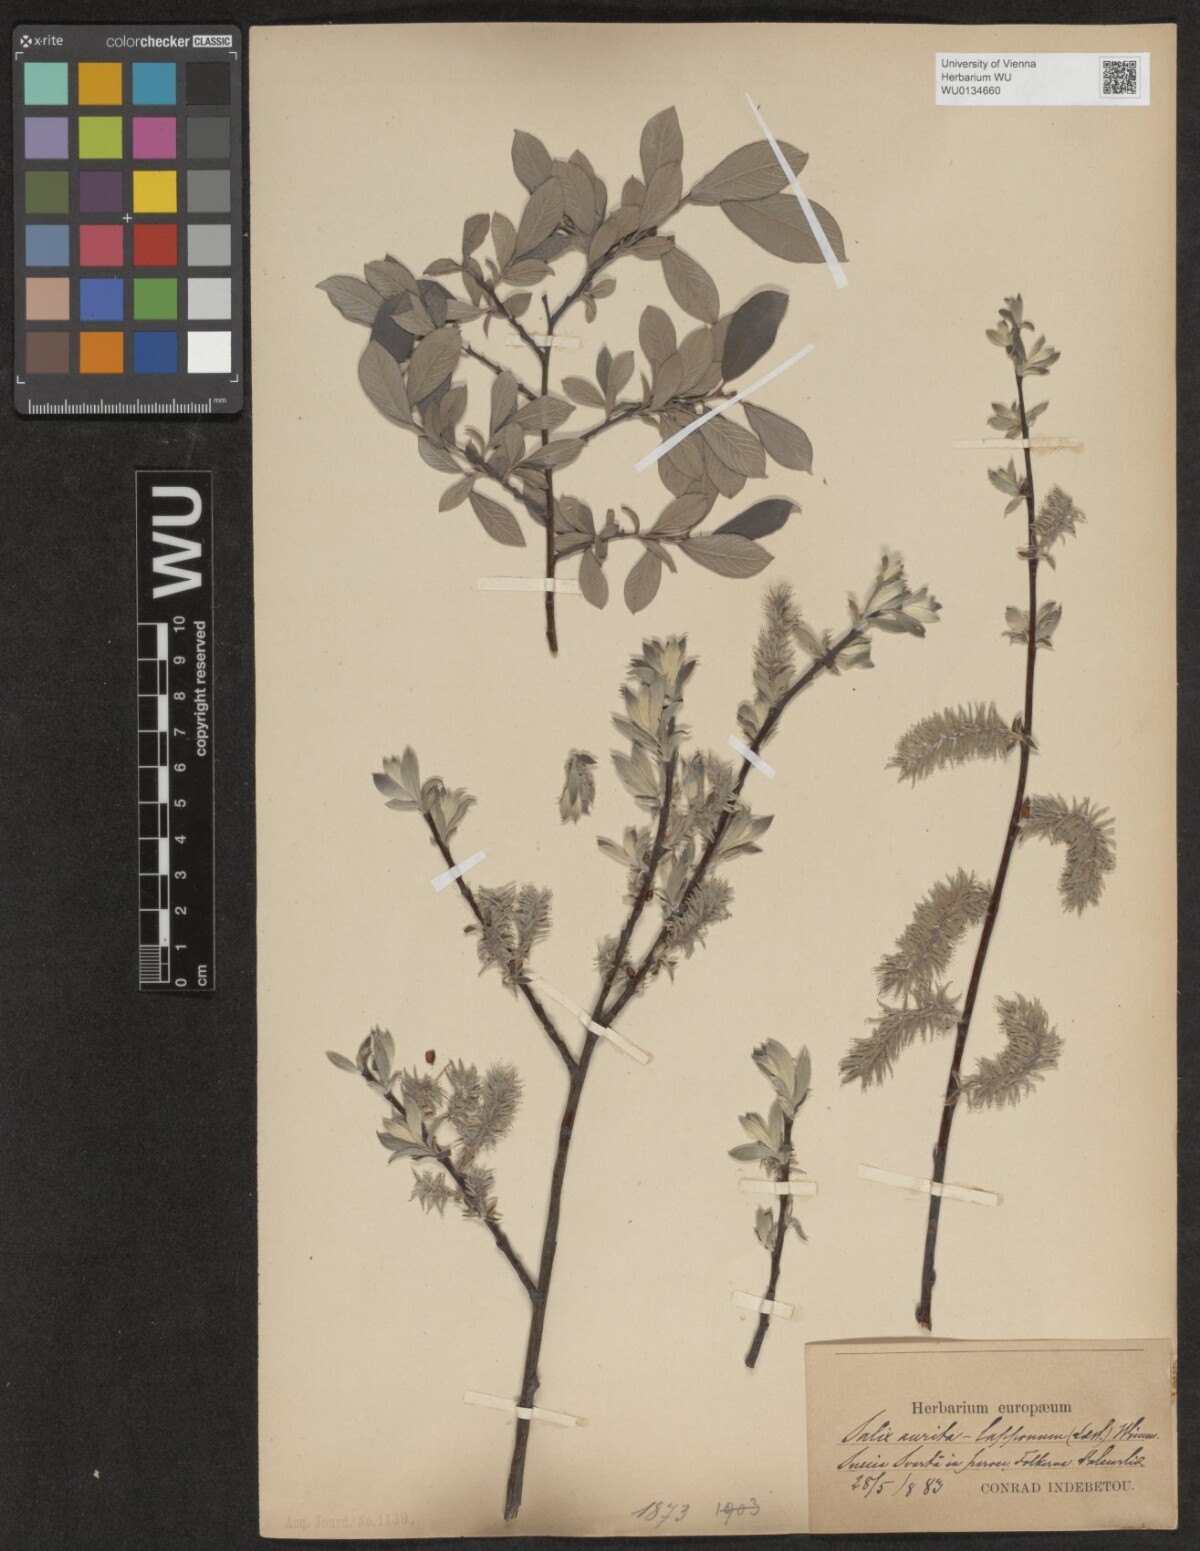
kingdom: Plantae
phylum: Tracheophyta
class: Magnoliopsida
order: Malpighiales
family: Salicaceae
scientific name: Salicaceae
